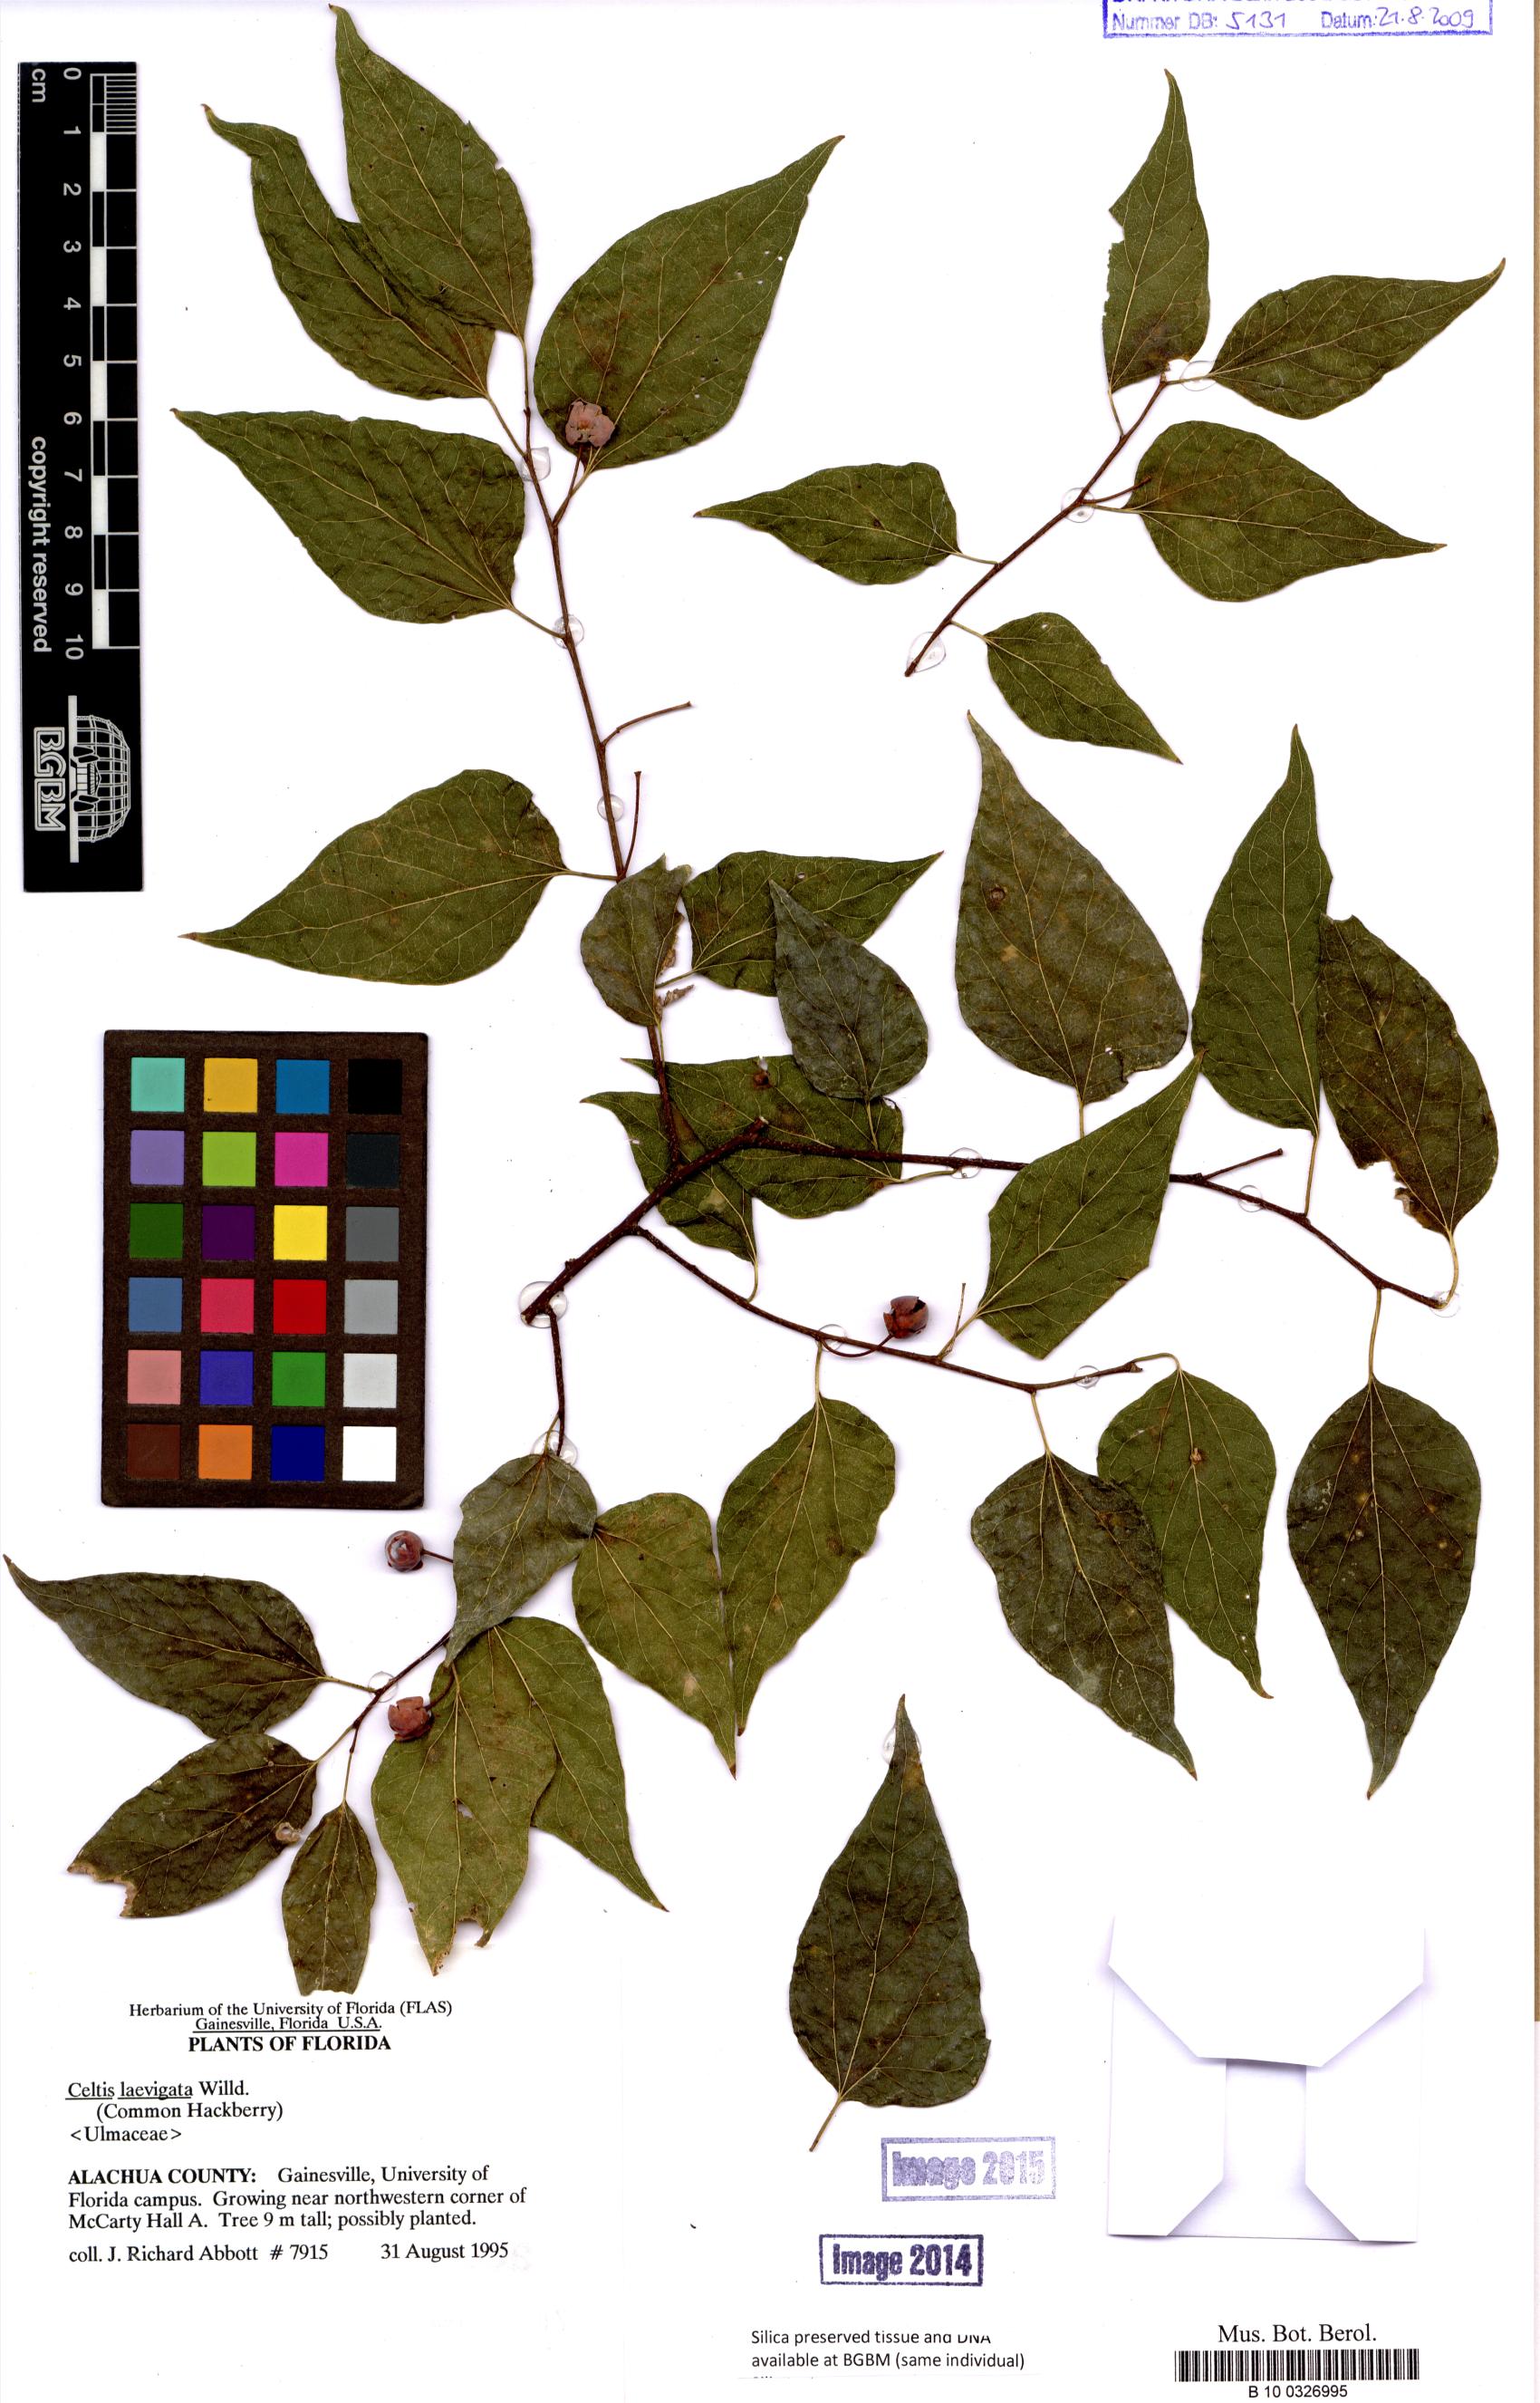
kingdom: Plantae
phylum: Tracheophyta
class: Magnoliopsida
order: Rosales
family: Cannabaceae
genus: Celtis
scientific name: Celtis laevigata
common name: Sugarberry
